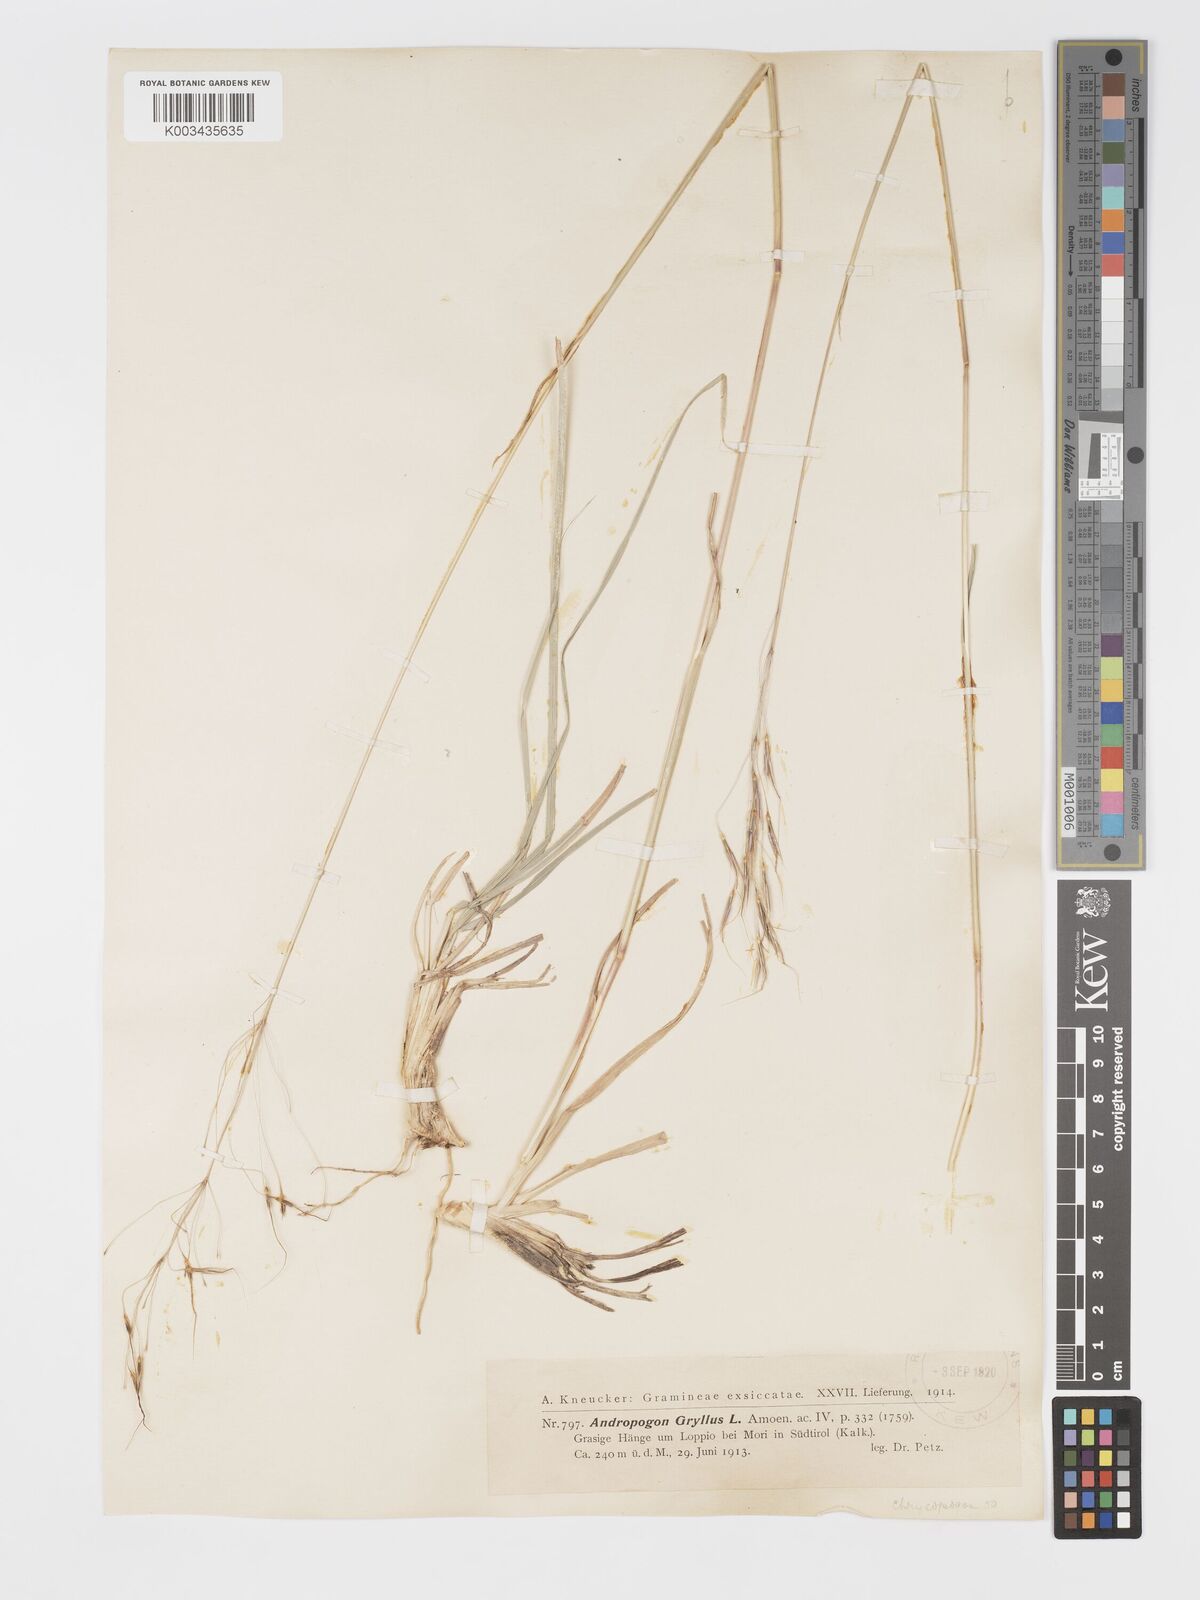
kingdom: Plantae
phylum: Tracheophyta
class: Liliopsida
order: Poales
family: Poaceae
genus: Chrysopogon
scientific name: Chrysopogon gryllus
